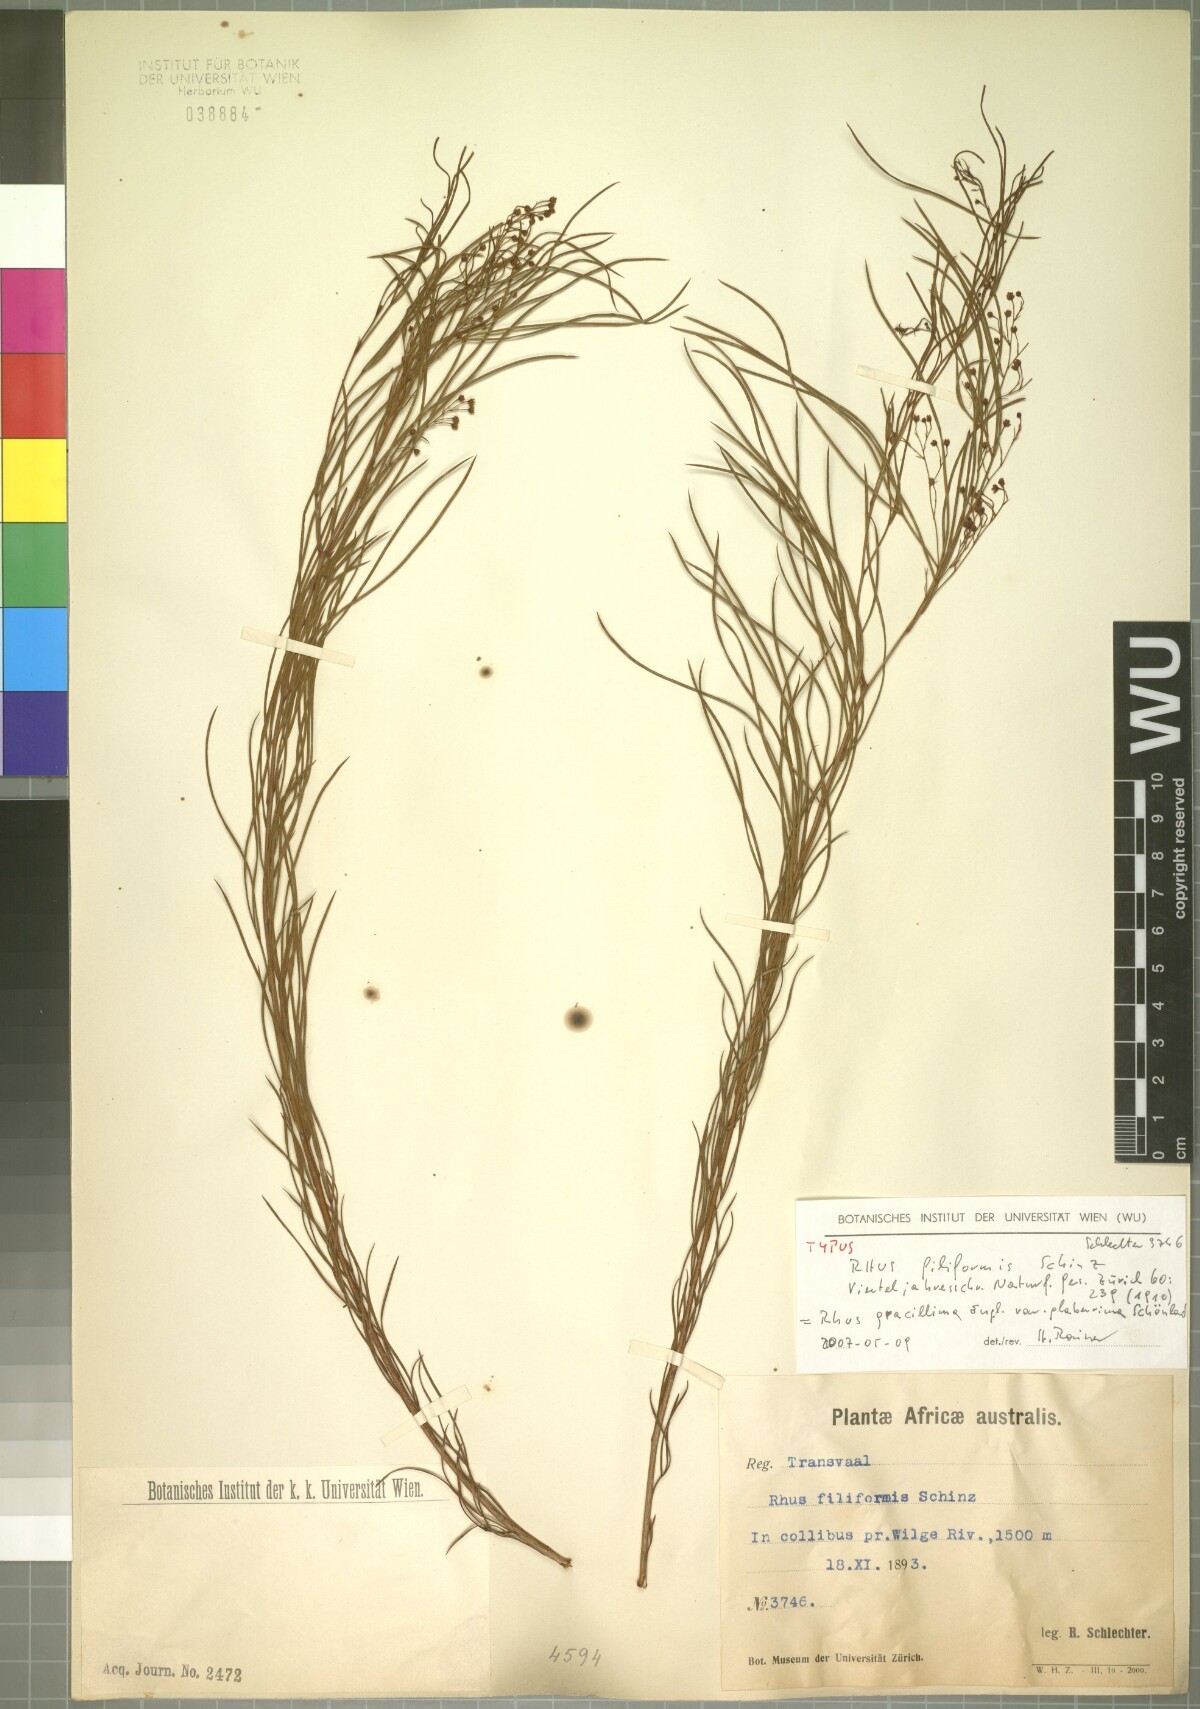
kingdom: Plantae
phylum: Tracheophyta
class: Magnoliopsida
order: Sapindales
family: Anacardiaceae
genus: Searsia
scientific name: Searsia gracillima
